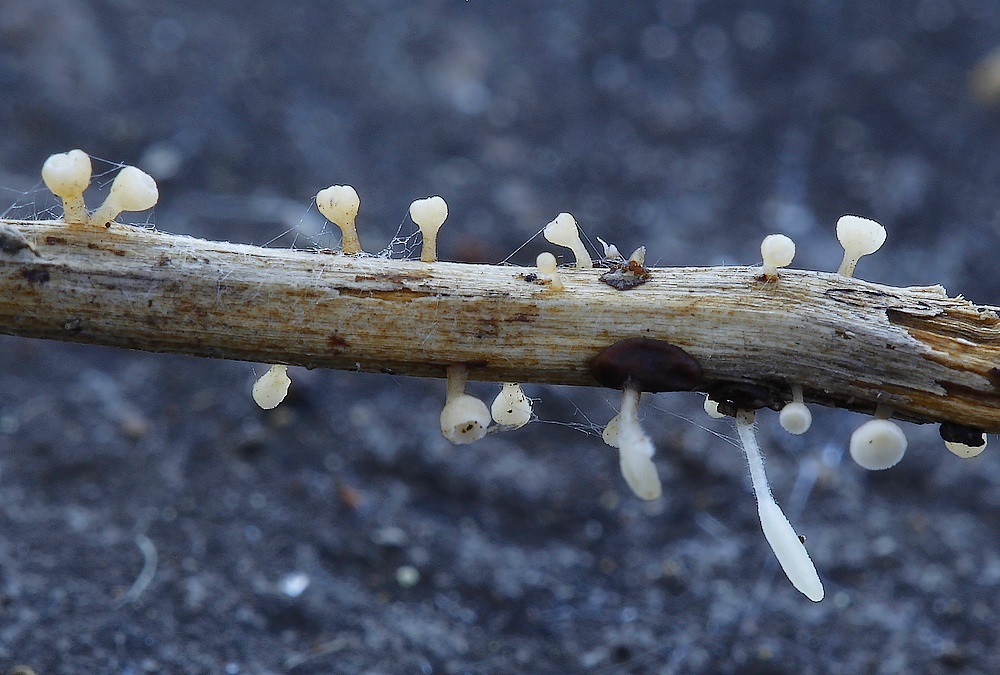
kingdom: Fungi
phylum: Ascomycota
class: Leotiomycetes
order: Helotiales
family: Helotiaceae
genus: Cyathicula
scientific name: Cyathicula cyathoidea
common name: pokal-stilkskive
